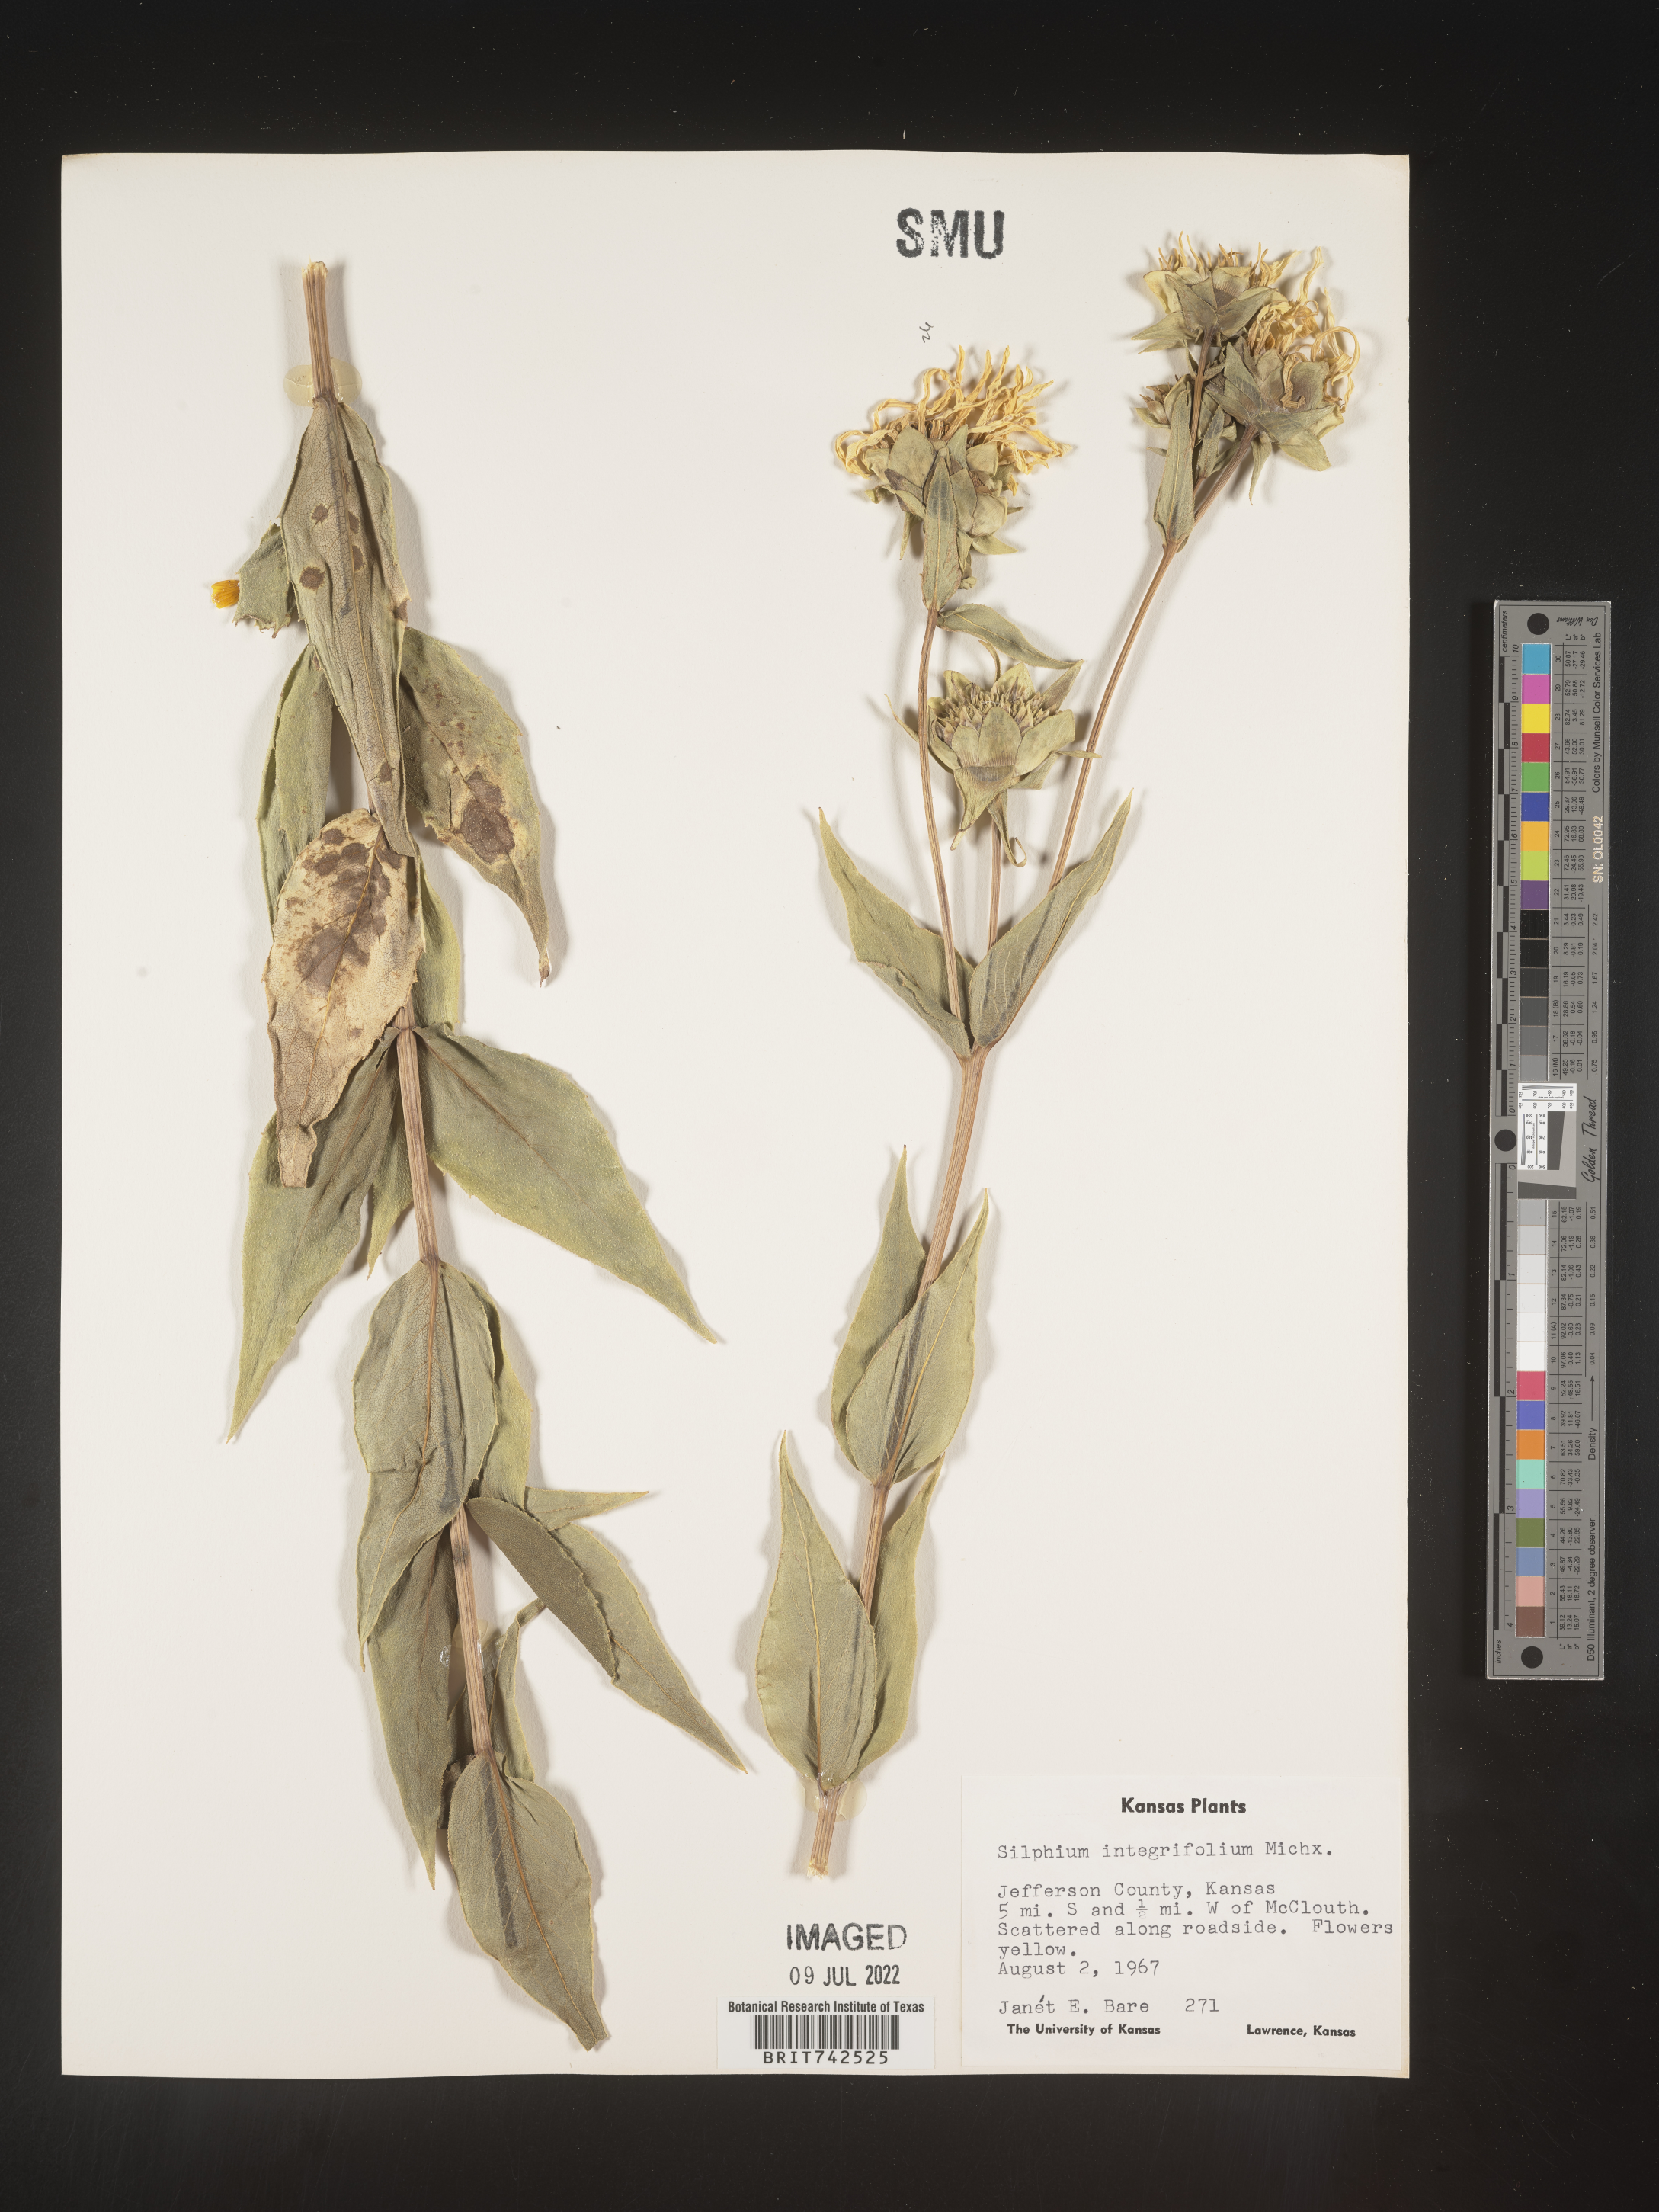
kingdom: Plantae
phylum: Tracheophyta
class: Magnoliopsida
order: Asterales
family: Asteraceae
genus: Silphium
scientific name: Silphium integrifolium
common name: Whole-leaf rosinweed
